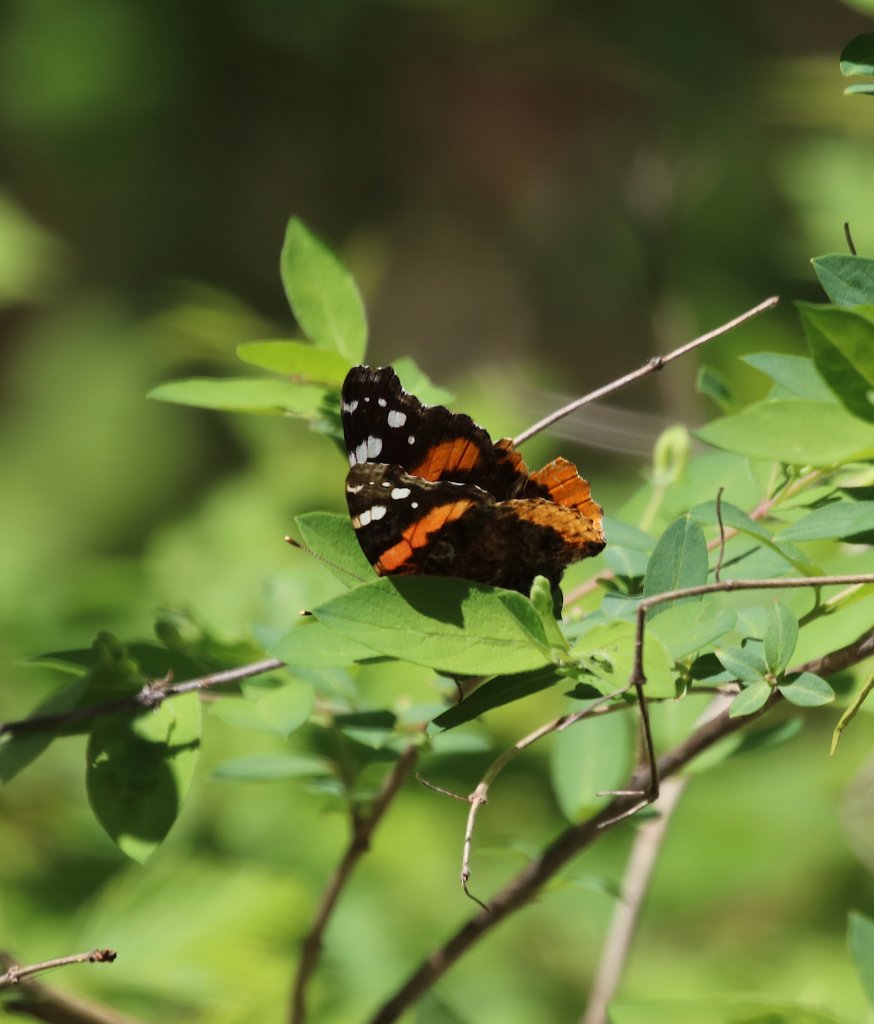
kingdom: Animalia
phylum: Arthropoda
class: Insecta
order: Lepidoptera
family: Nymphalidae
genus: Vanessa
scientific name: Vanessa atalanta
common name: Red Admiral
